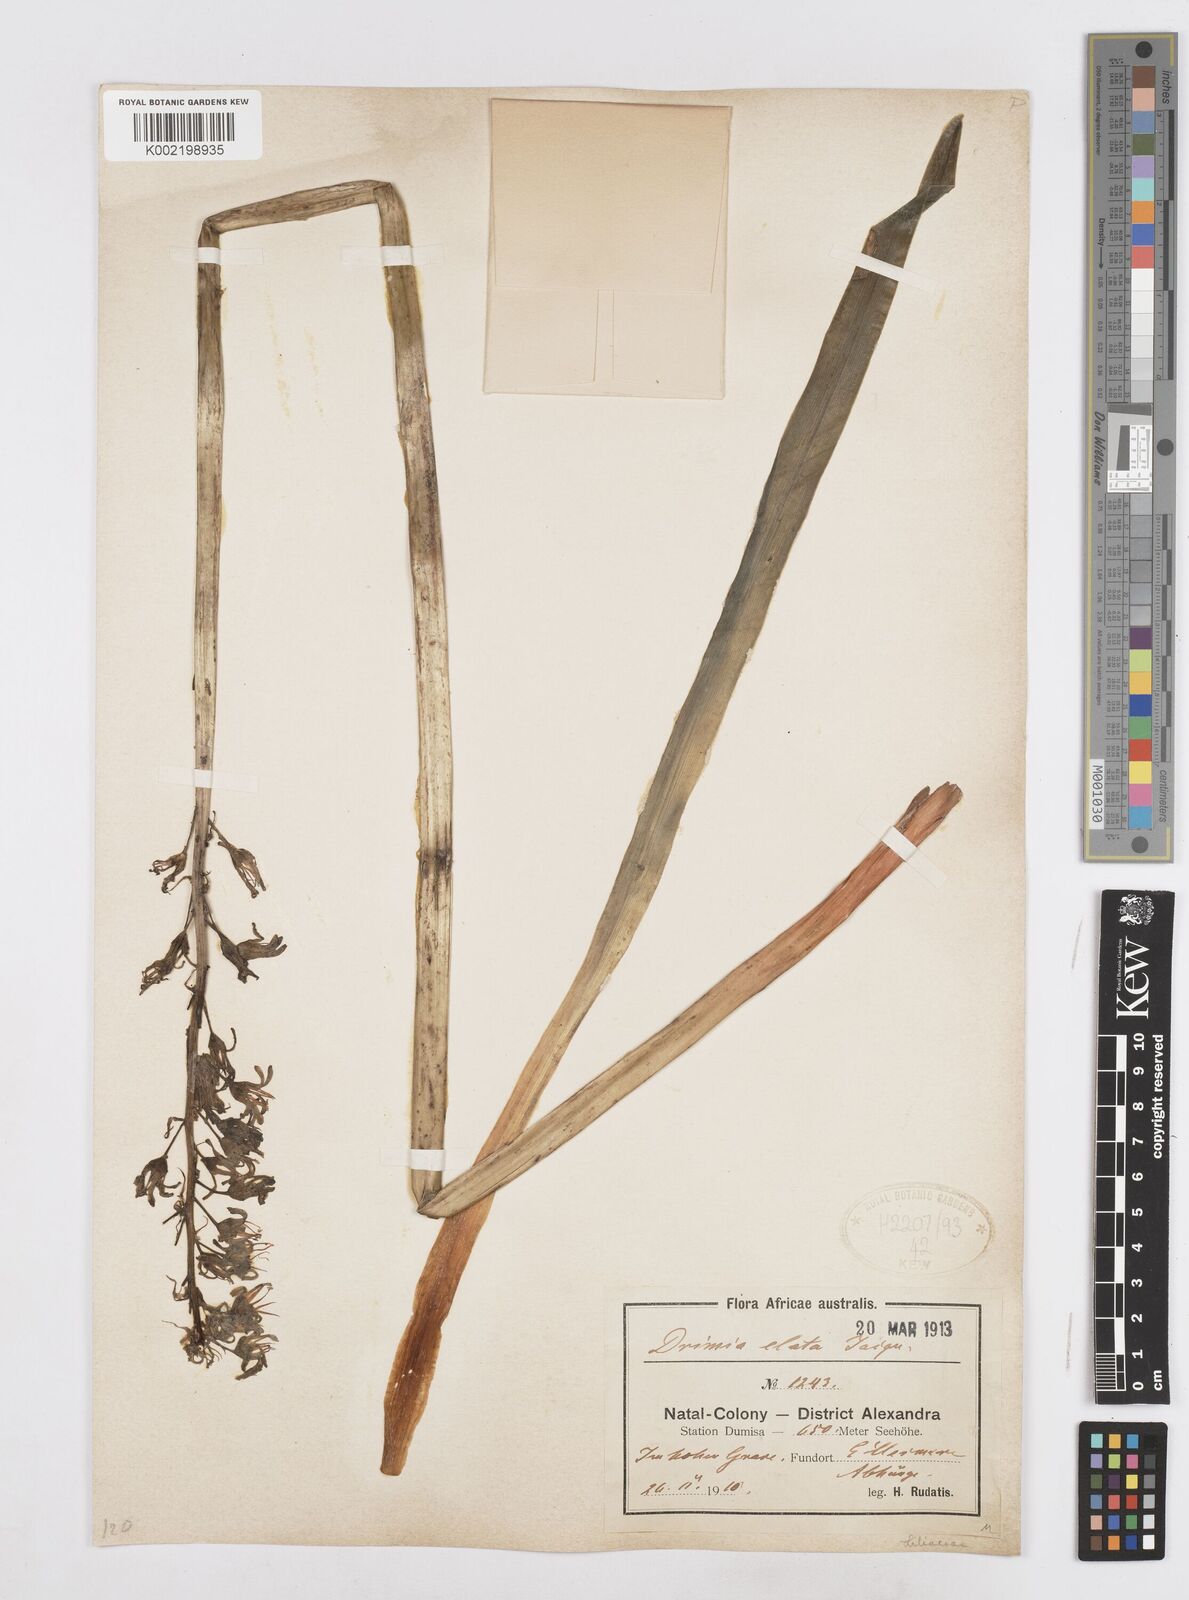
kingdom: Plantae
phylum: Tracheophyta
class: Liliopsida
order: Asparagales
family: Asparagaceae
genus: Drimia
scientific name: Drimia elata
